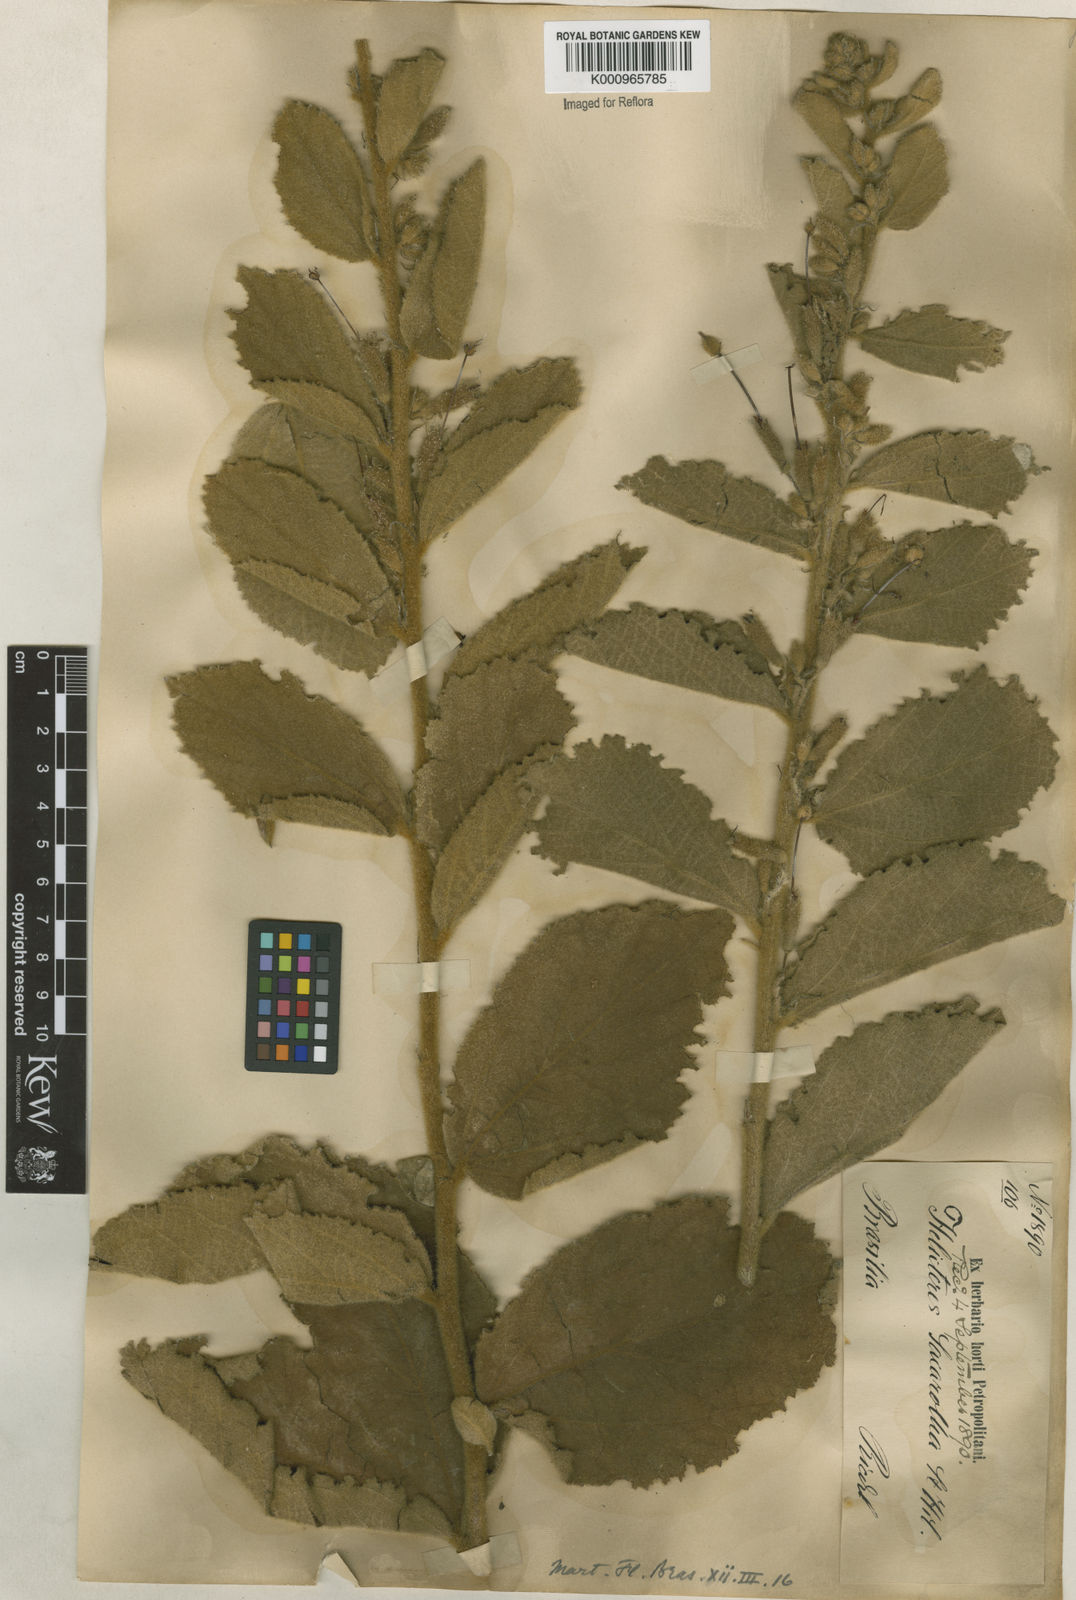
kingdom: Plantae
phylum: Tracheophyta
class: Magnoliopsida
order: Malvales
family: Malvaceae
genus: Helicteres
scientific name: Helicteres
